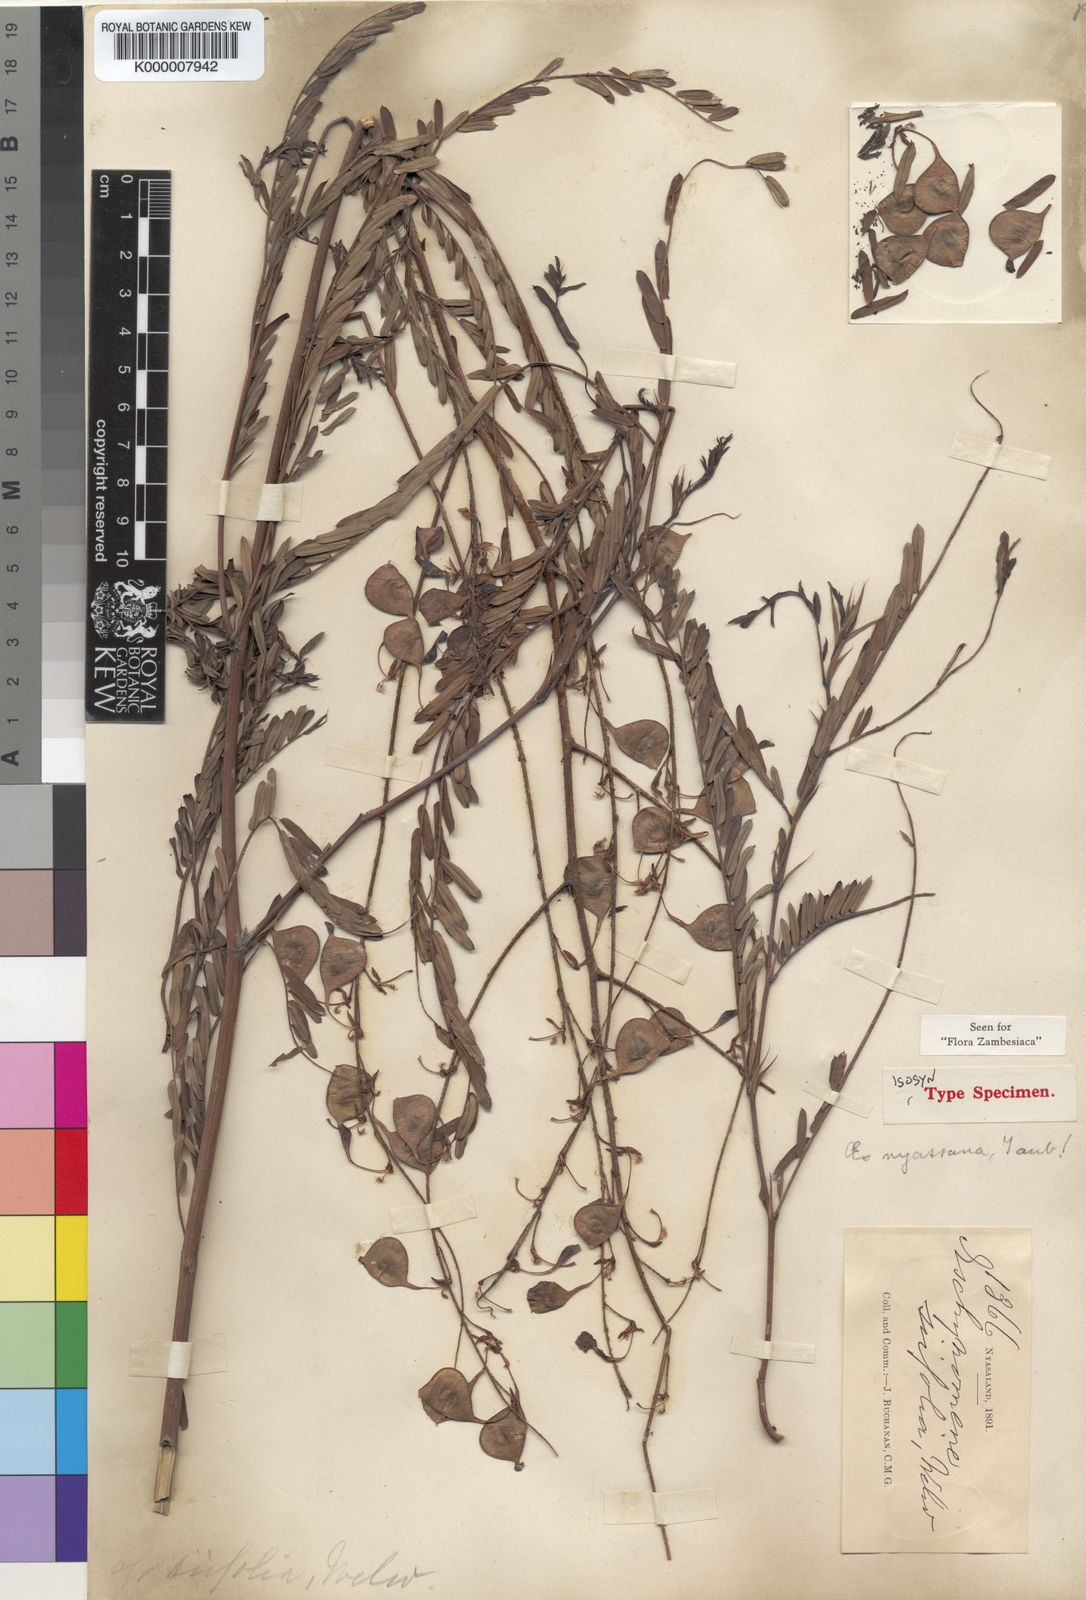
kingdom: Plantae
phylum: Tracheophyta
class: Magnoliopsida
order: Fabales
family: Fabaceae
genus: Aeschynomene
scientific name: Aeschynomene nyassana
